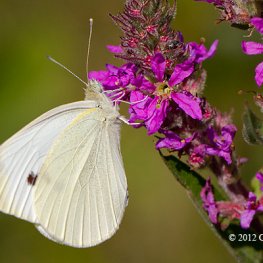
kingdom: Animalia
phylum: Arthropoda
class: Insecta
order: Lepidoptera
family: Pieridae
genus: Pieris
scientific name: Pieris rapae
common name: Cabbage White
